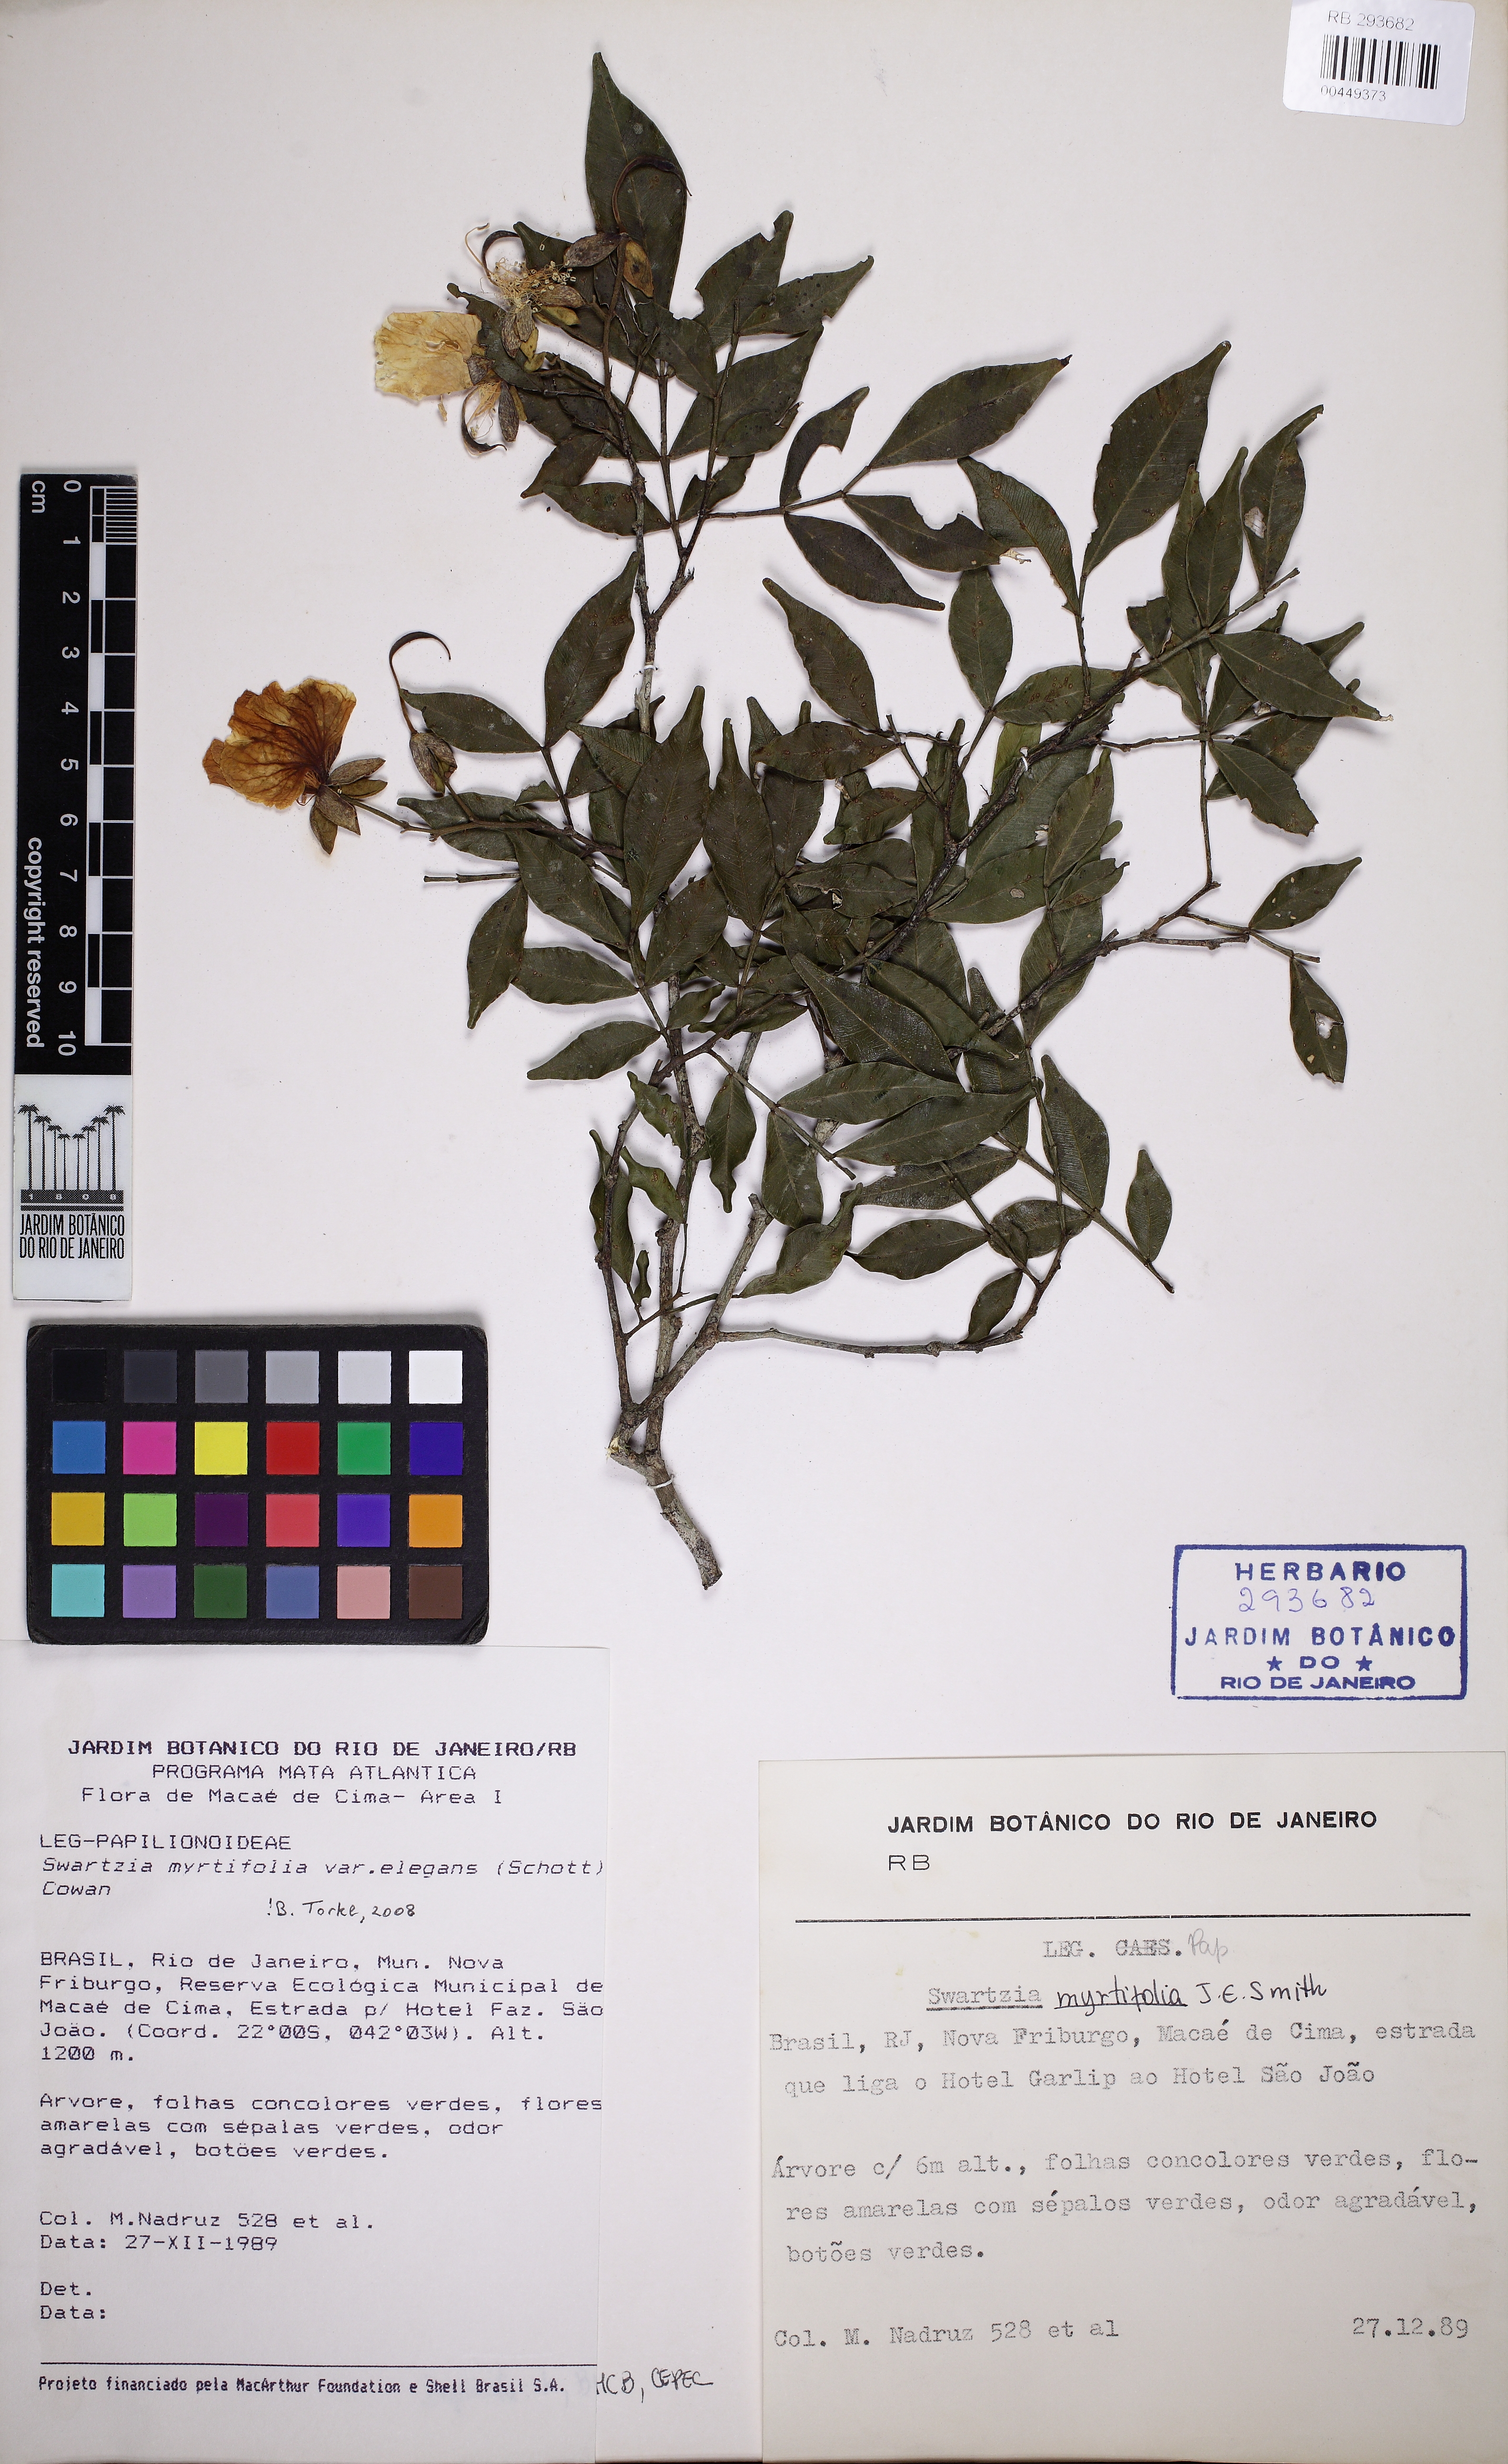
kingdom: Plantae
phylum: Tracheophyta
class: Magnoliopsida
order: Fabales
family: Fabaceae
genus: Swartzia
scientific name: Swartzia myrtifolia
